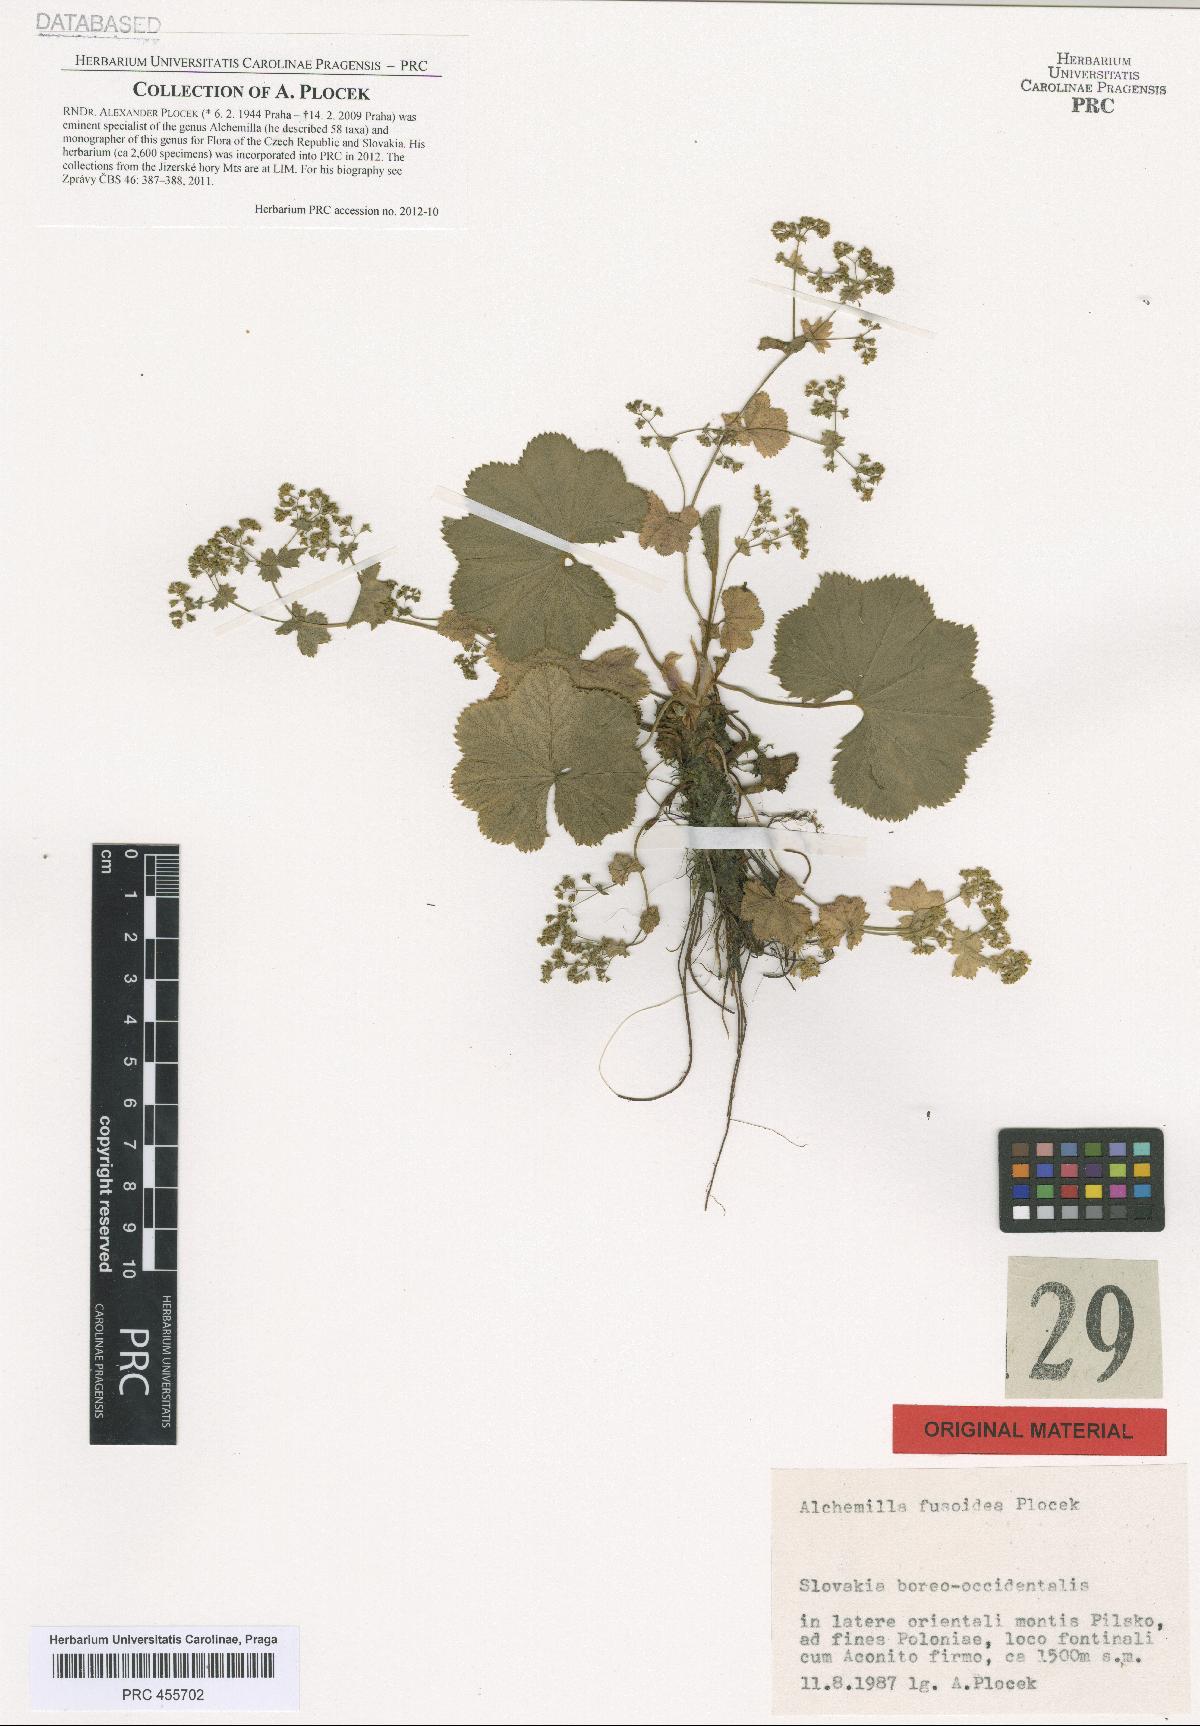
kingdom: Plantae
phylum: Tracheophyta
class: Magnoliopsida
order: Rosales
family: Rosaceae
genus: Alchemilla
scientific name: Alchemilla fusoidea
